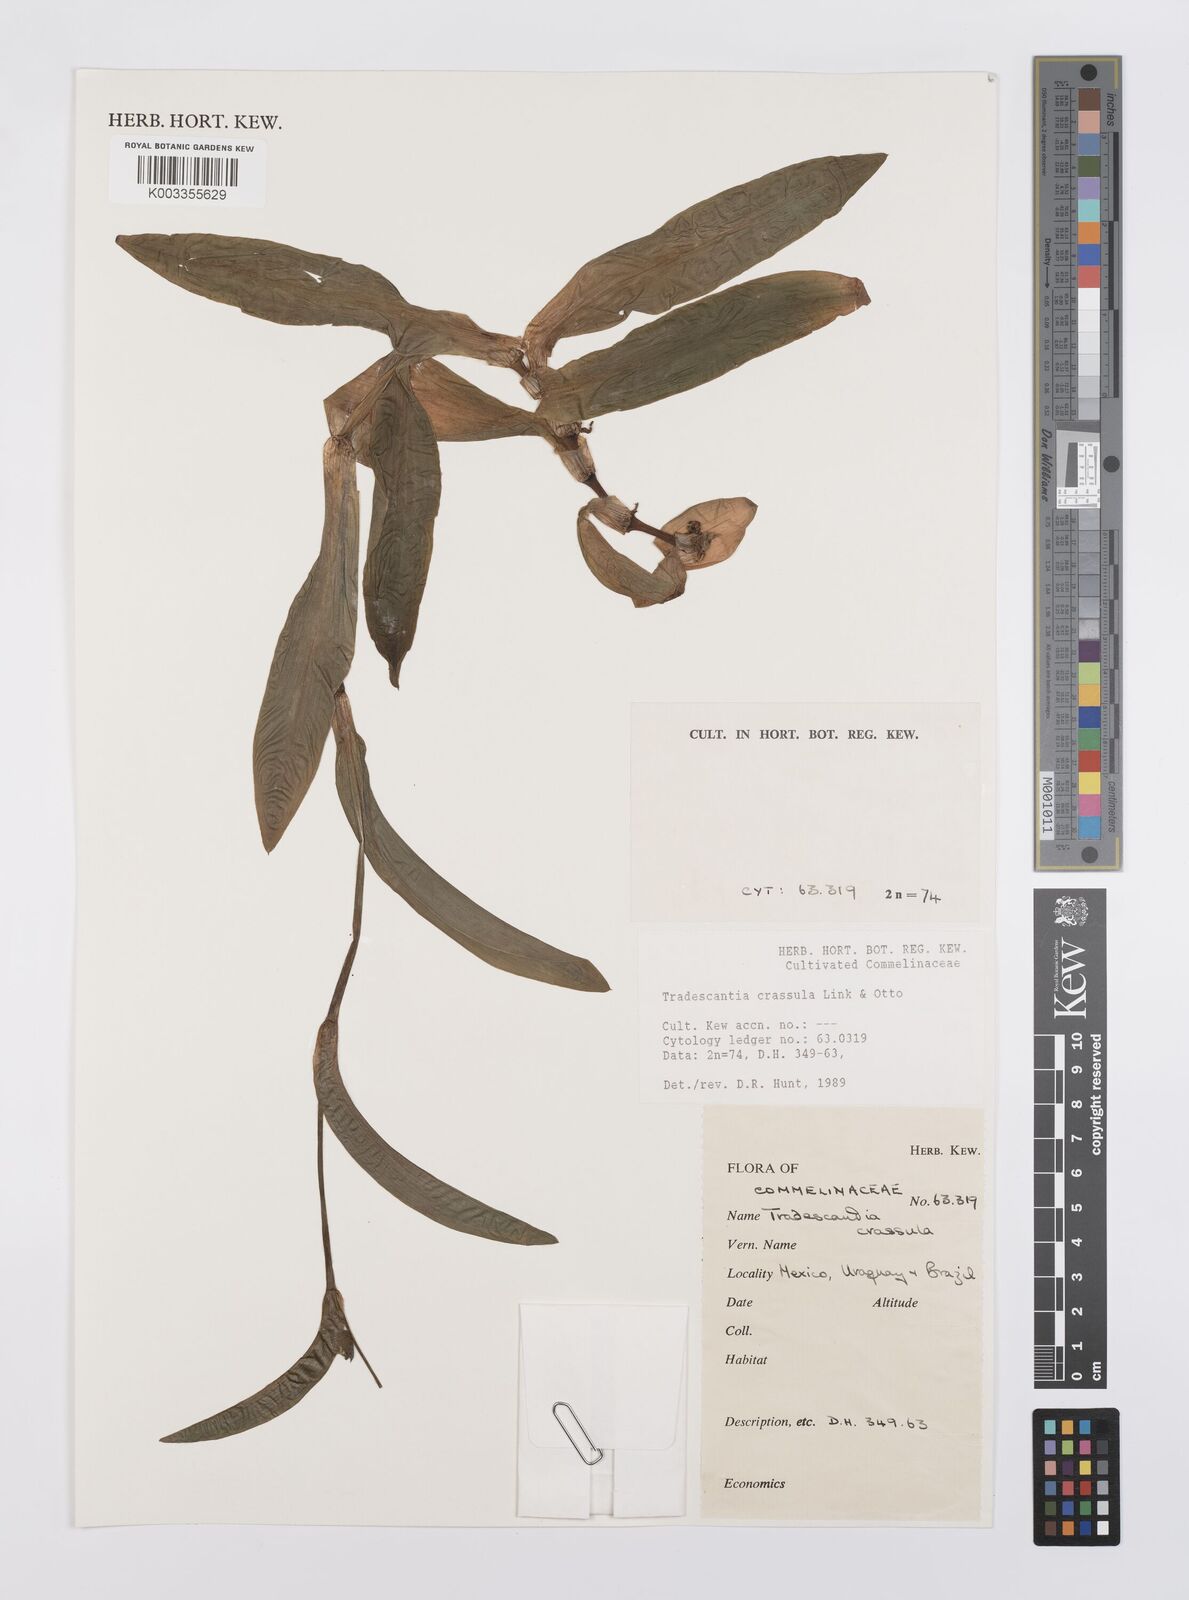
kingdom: Plantae
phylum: Tracheophyta
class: Liliopsida
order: Commelinales
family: Commelinaceae
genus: Tradescantia
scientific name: Tradescantia crassula
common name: Succulent spiderwort
